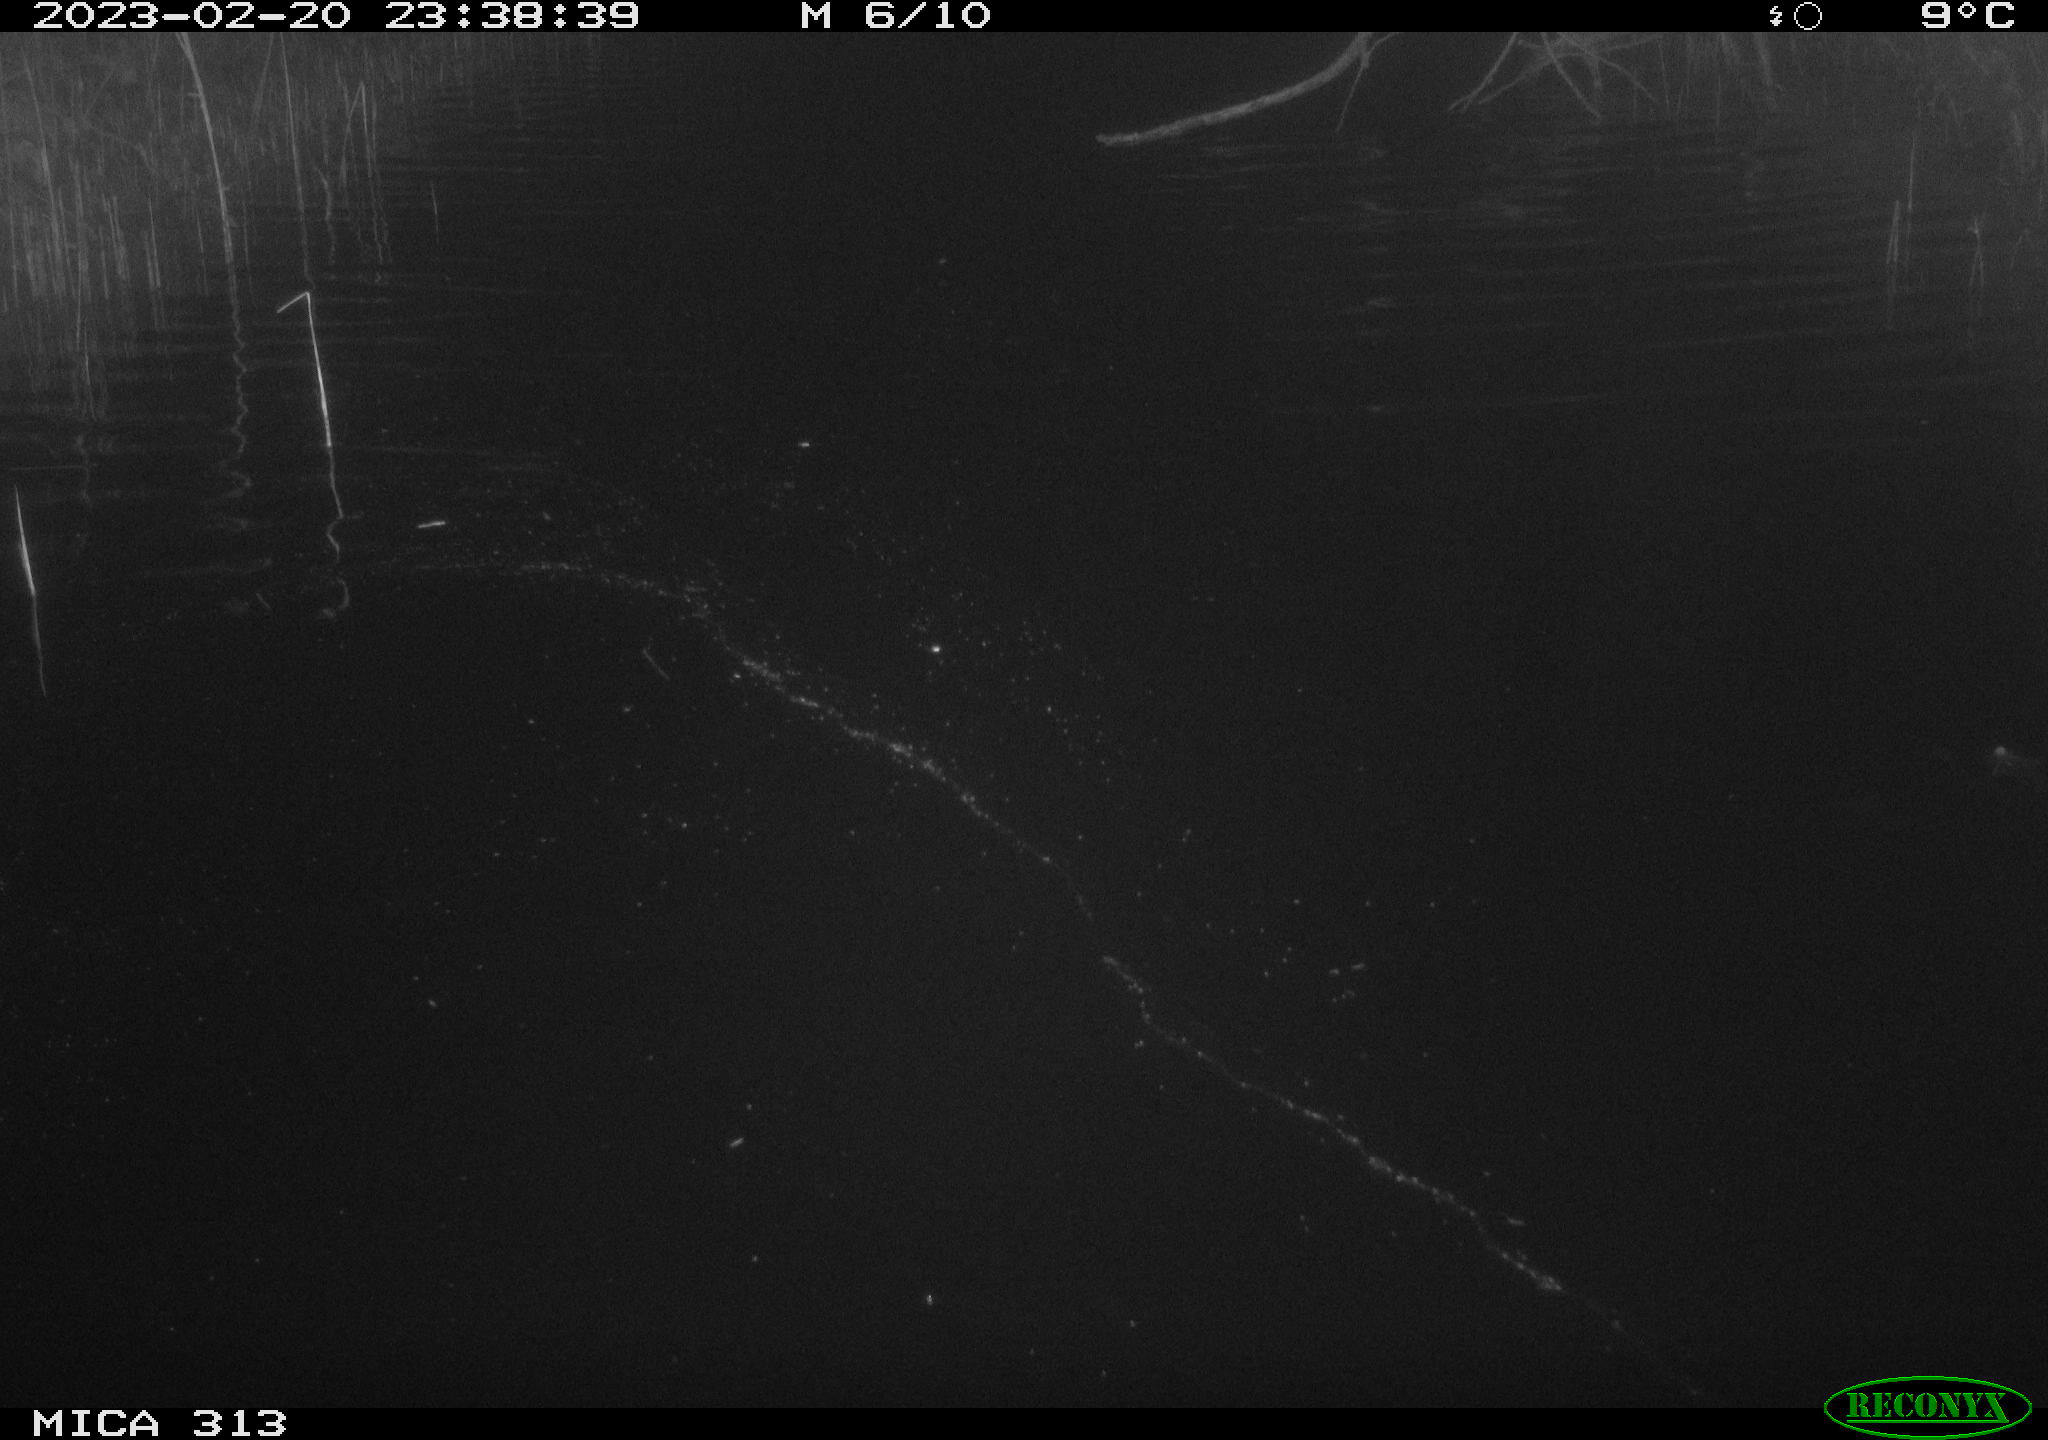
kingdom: Animalia
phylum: Chordata
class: Aves
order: Gruiformes
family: Rallidae
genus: Gallinula
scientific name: Gallinula chloropus
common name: Common moorhen
